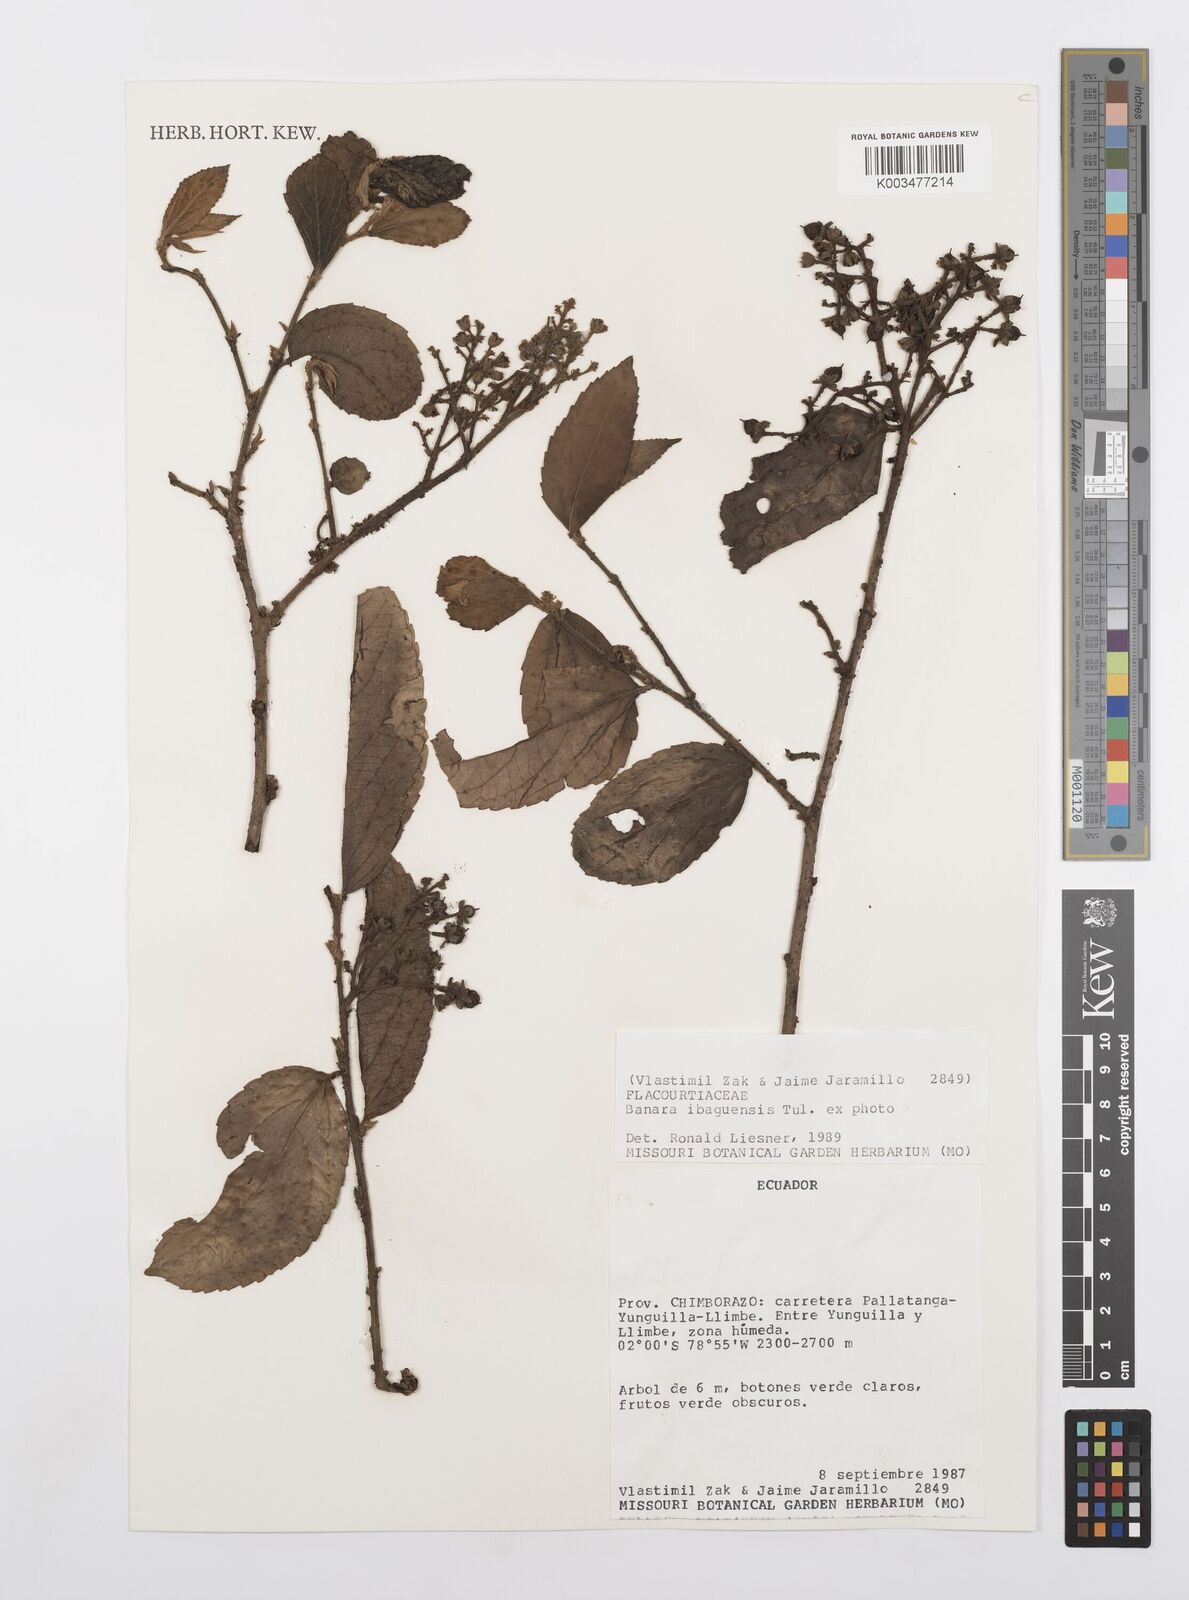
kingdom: Plantae
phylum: Tracheophyta
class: Magnoliopsida
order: Malpighiales
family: Salicaceae
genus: Banara
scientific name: Banara ibaguensis
